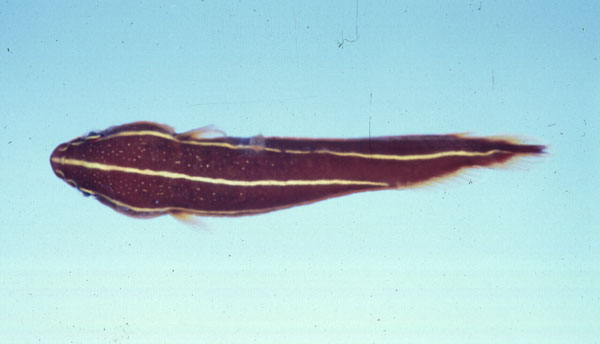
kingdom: Animalia
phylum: Chordata
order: Gobiesociformes
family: Gobiesocidae
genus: Lepadichthys
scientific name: Lepadichthys coccinotaenia
